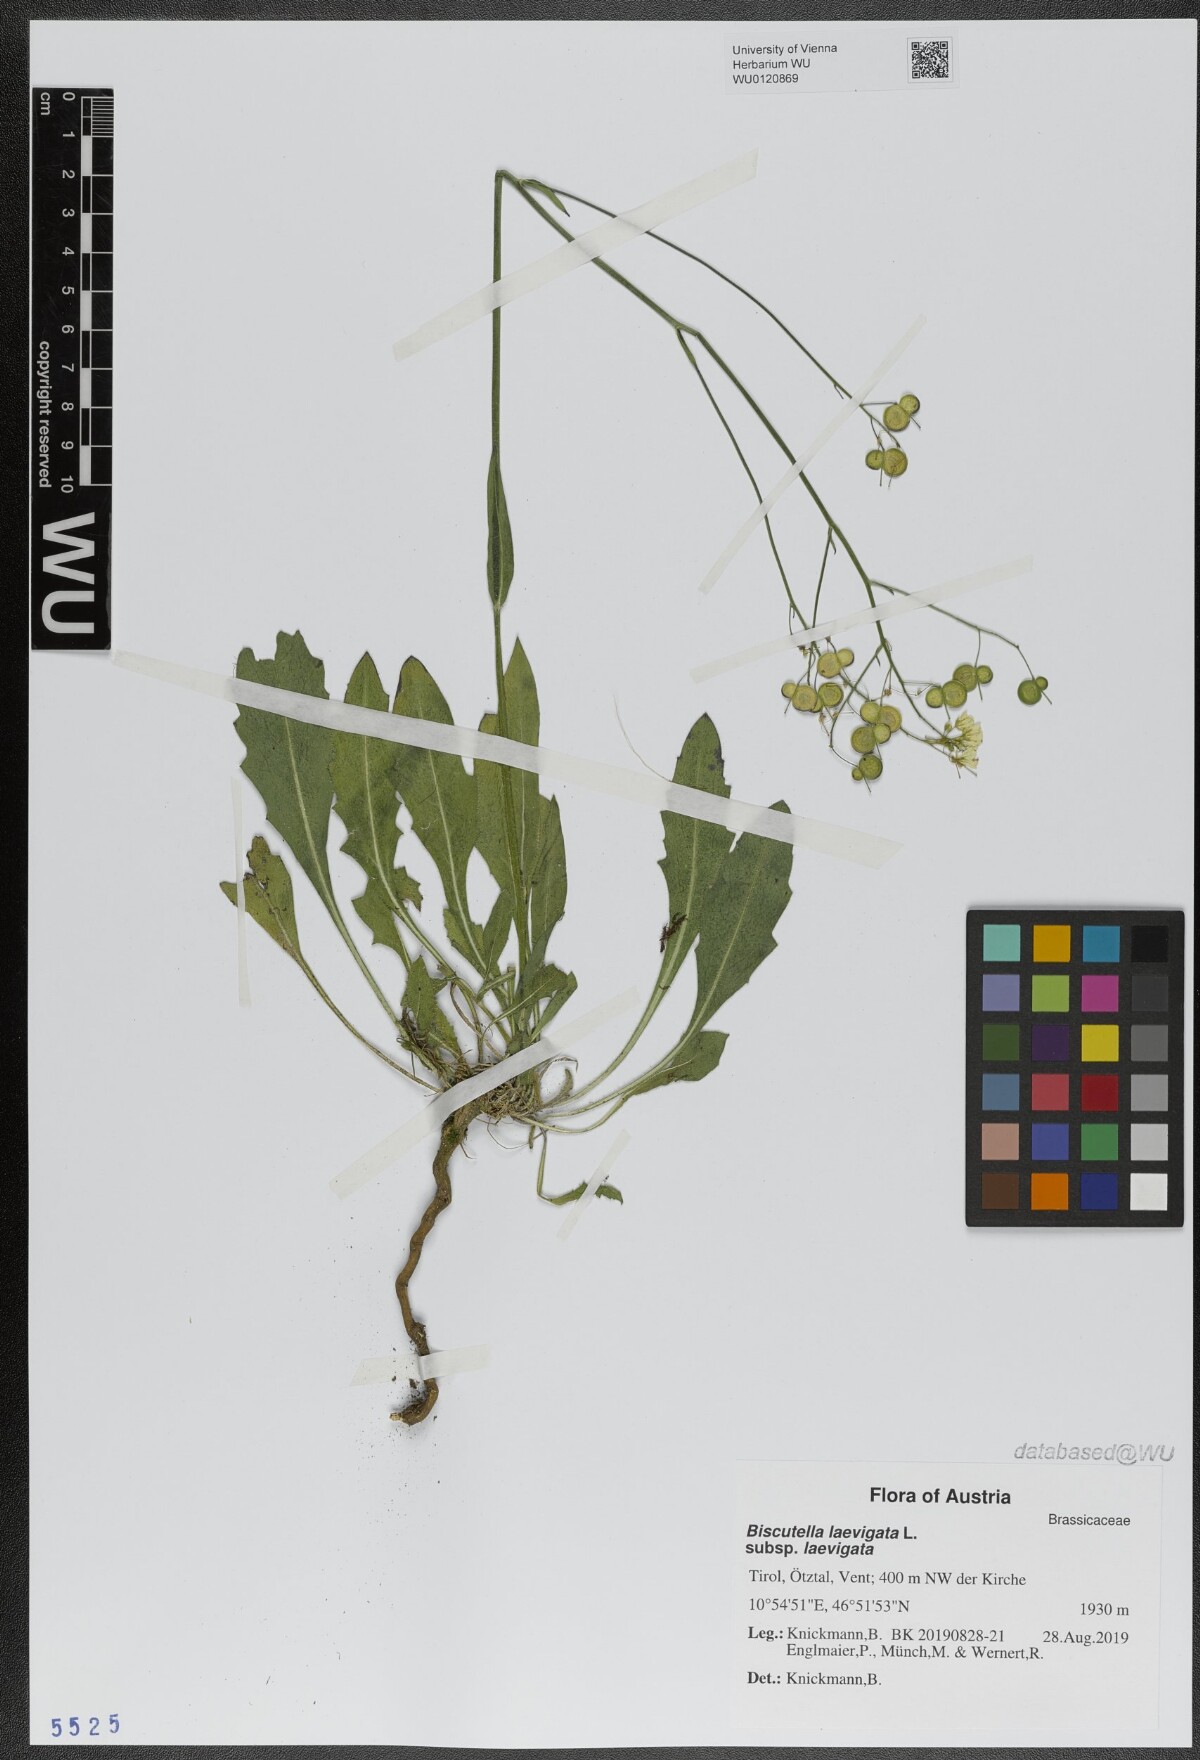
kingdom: Plantae
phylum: Tracheophyta
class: Magnoliopsida
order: Brassicales
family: Brassicaceae
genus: Biscutella
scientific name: Biscutella laevigata
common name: Buckler mustard
